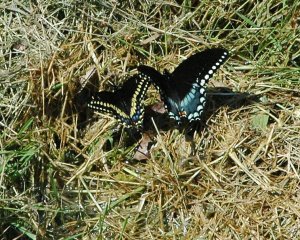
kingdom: Animalia
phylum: Arthropoda
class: Insecta
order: Lepidoptera
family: Papilionidae
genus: Papilio
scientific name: Papilio polyxenes
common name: Black Swallowtail
